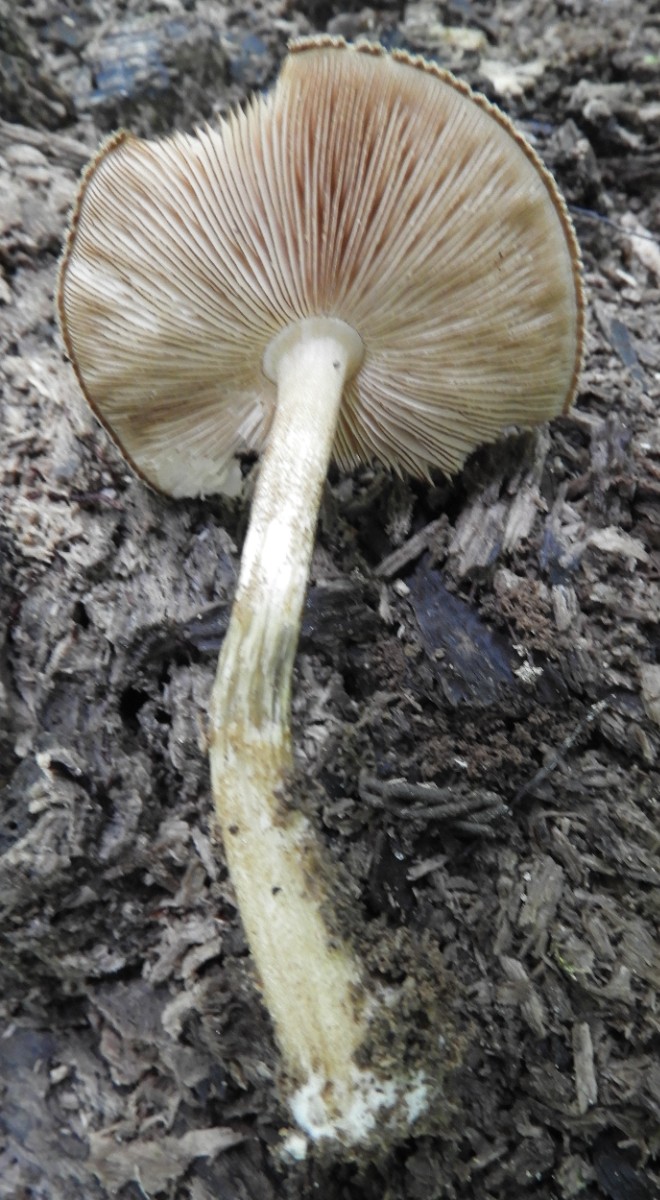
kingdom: Fungi
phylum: Basidiomycota
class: Agaricomycetes
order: Agaricales
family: Pluteaceae
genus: Pluteus
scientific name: Pluteus umbrosus
